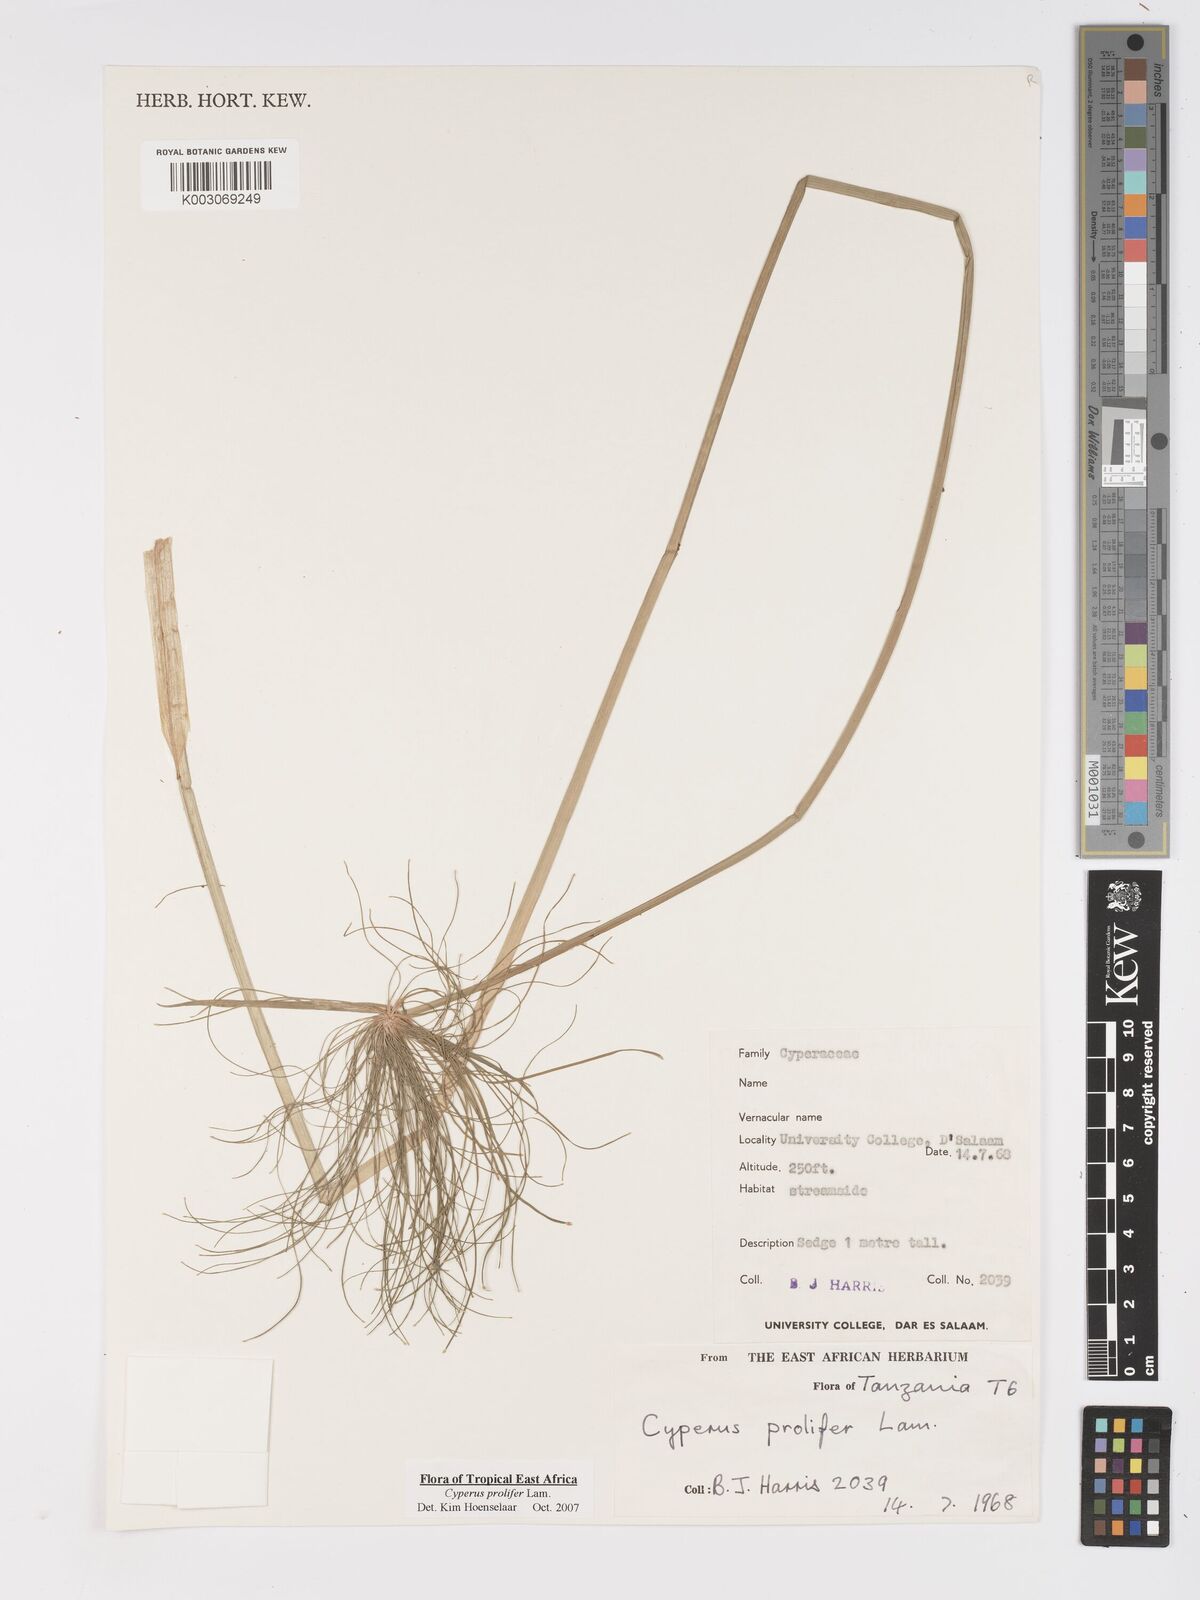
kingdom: Plantae
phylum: Tracheophyta
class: Liliopsida
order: Poales
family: Cyperaceae
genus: Cyperus
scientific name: Cyperus prolifer
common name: Miniature flatsedge
